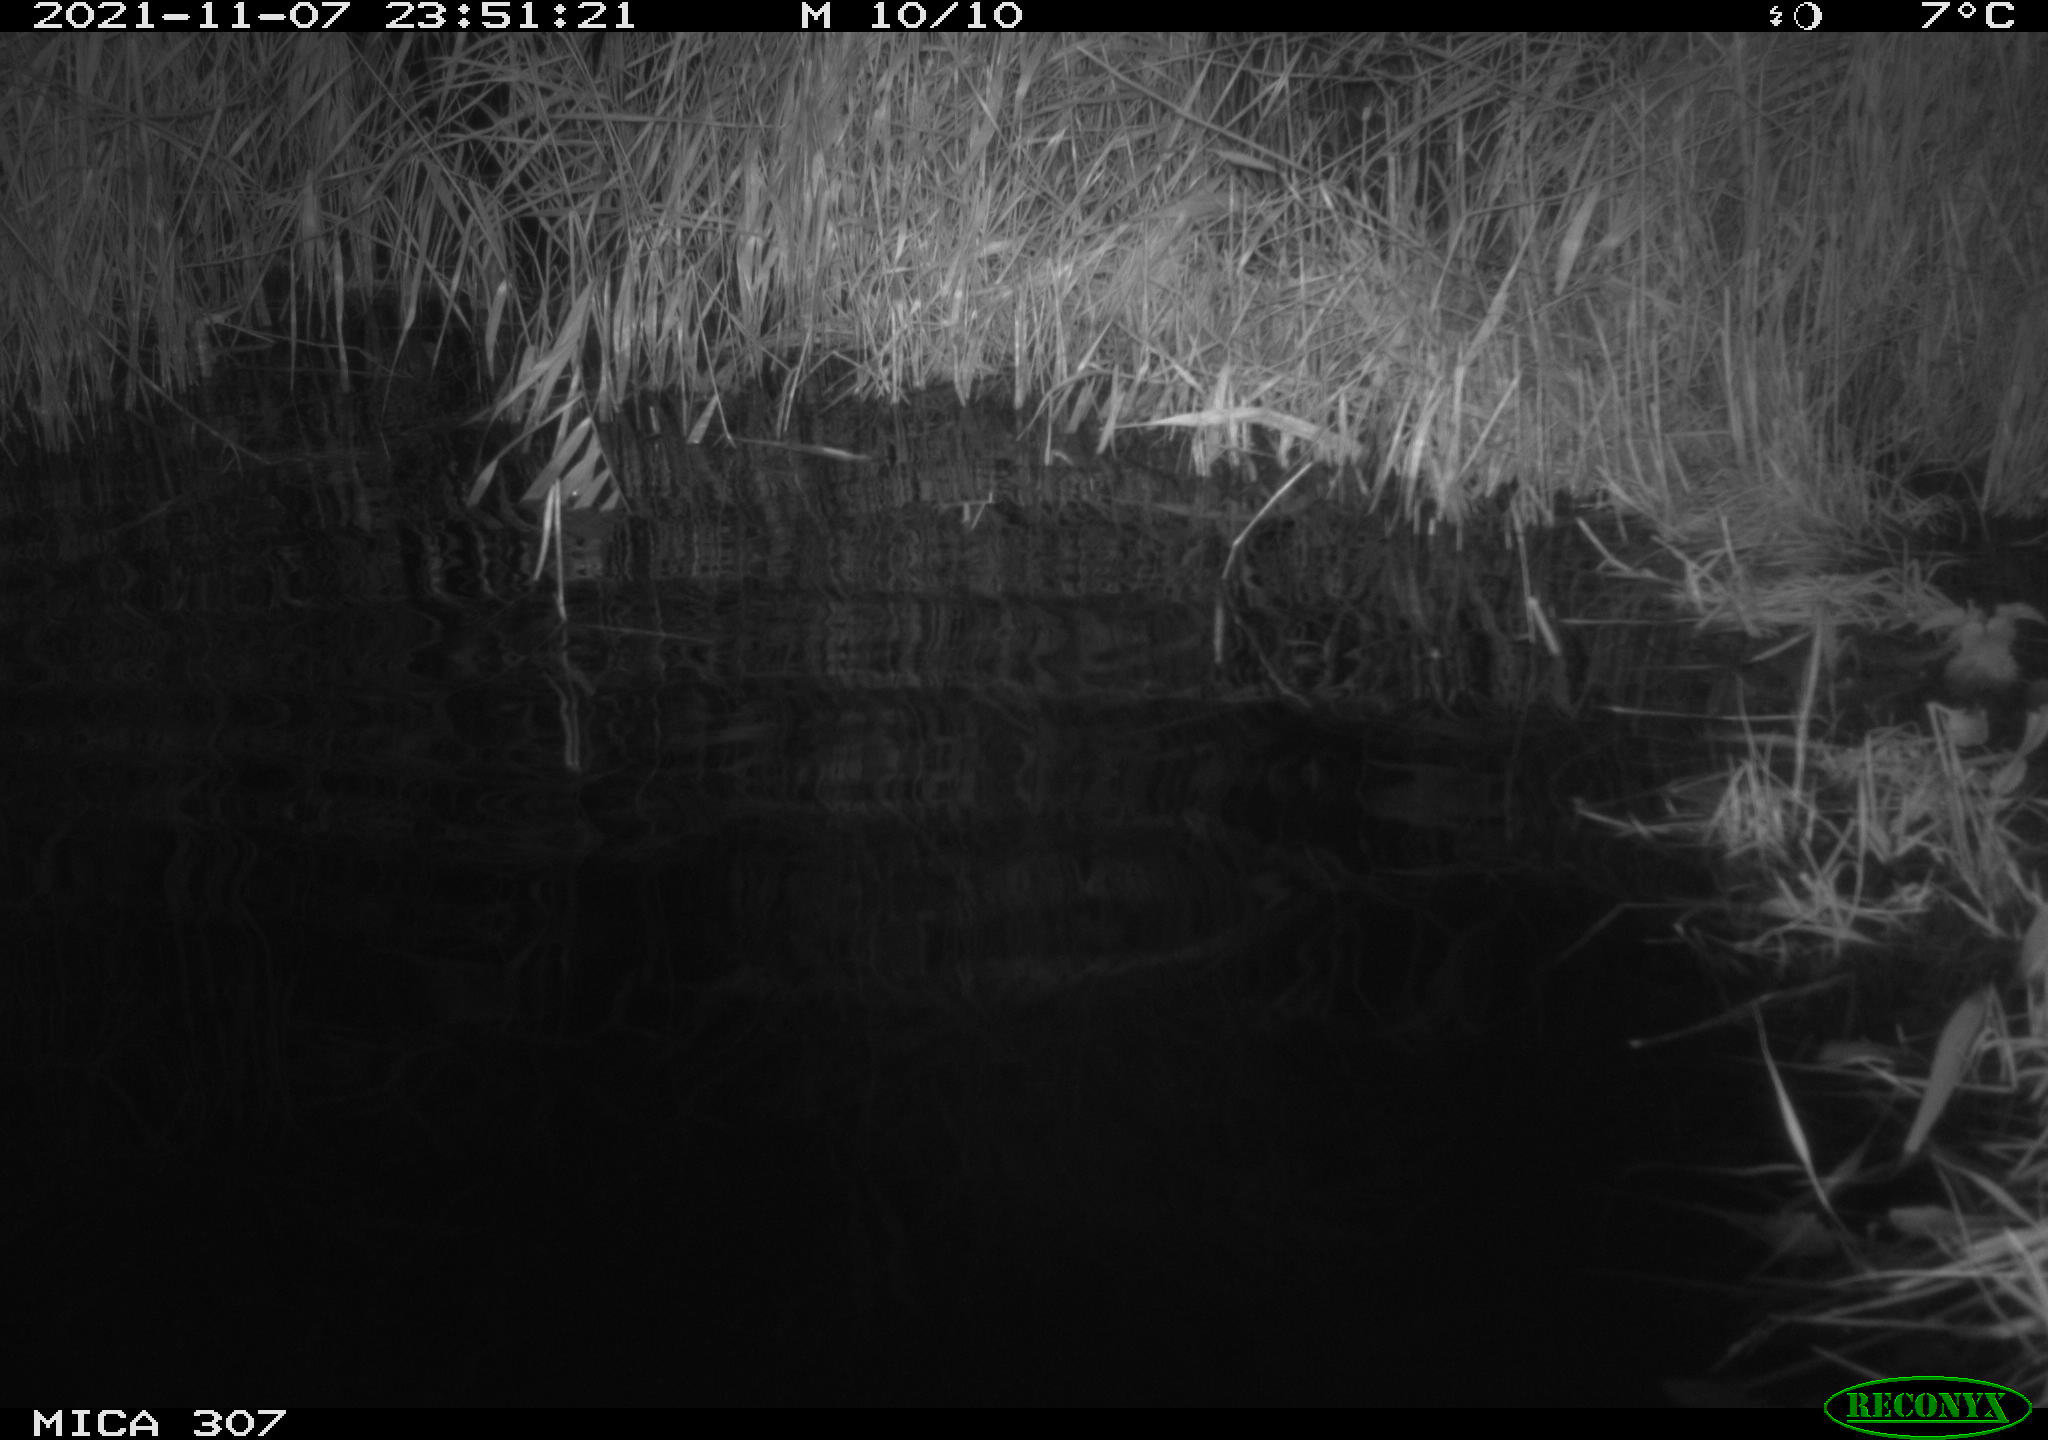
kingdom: Animalia
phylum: Chordata
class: Mammalia
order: Rodentia
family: Cricetidae
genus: Ondatra
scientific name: Ondatra zibethicus
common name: Muskrat
